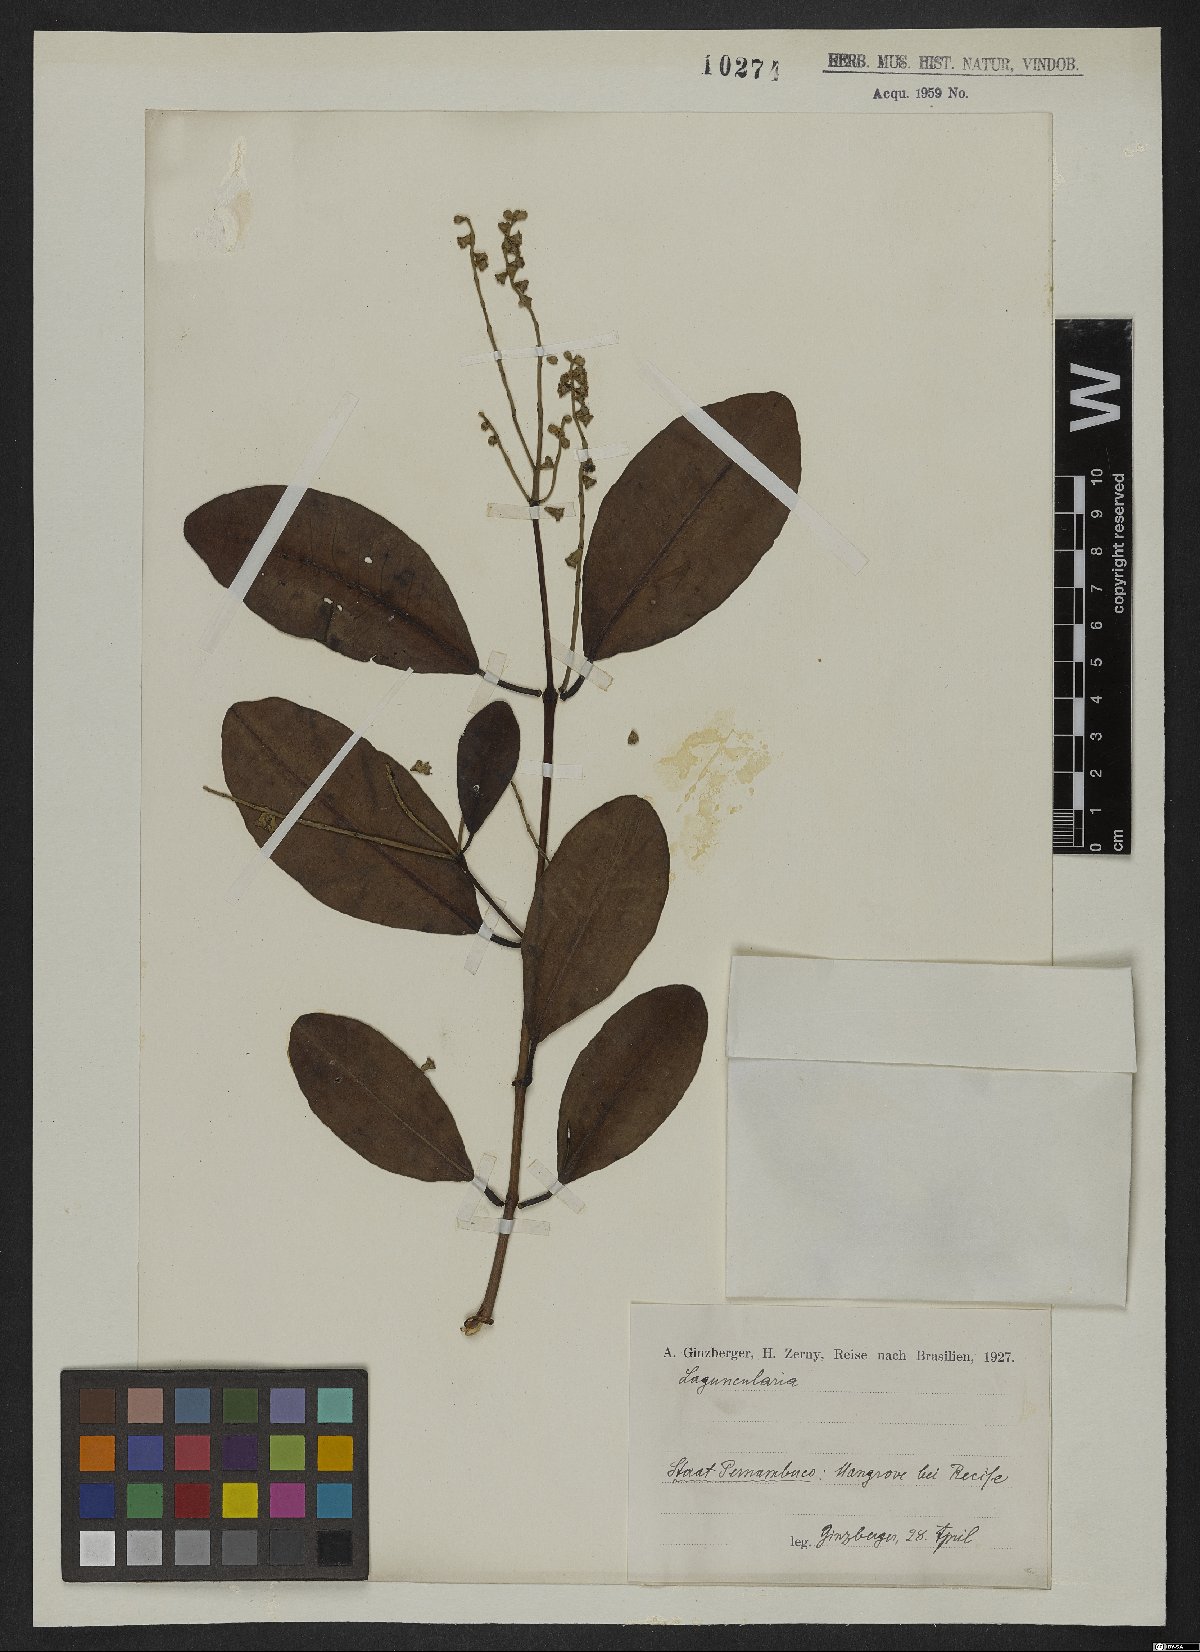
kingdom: Plantae
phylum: Tracheophyta
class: Magnoliopsida
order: Myrtales
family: Combretaceae
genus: Laguncularia
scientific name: Laguncularia racemosa
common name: White mangrove
